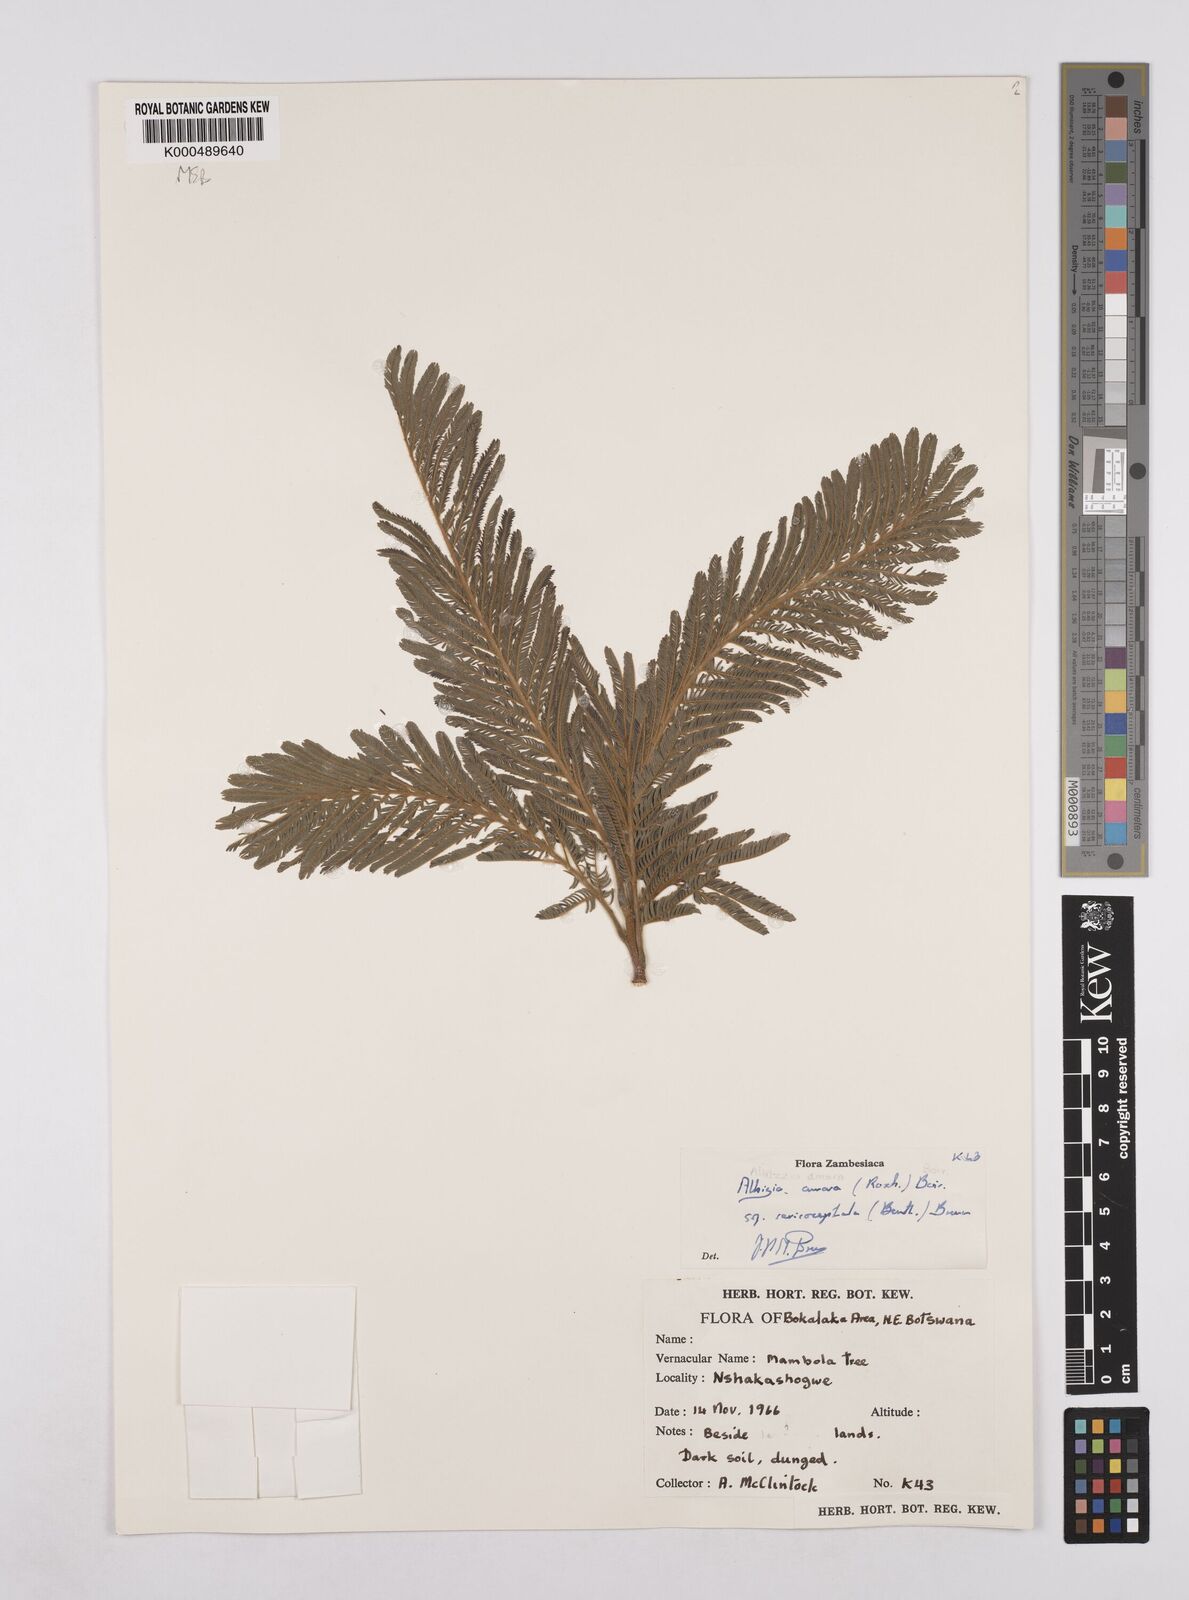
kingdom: Plantae
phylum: Tracheophyta
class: Magnoliopsida
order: Fabales
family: Fabaceae
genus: Albizia
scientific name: Albizia amara
